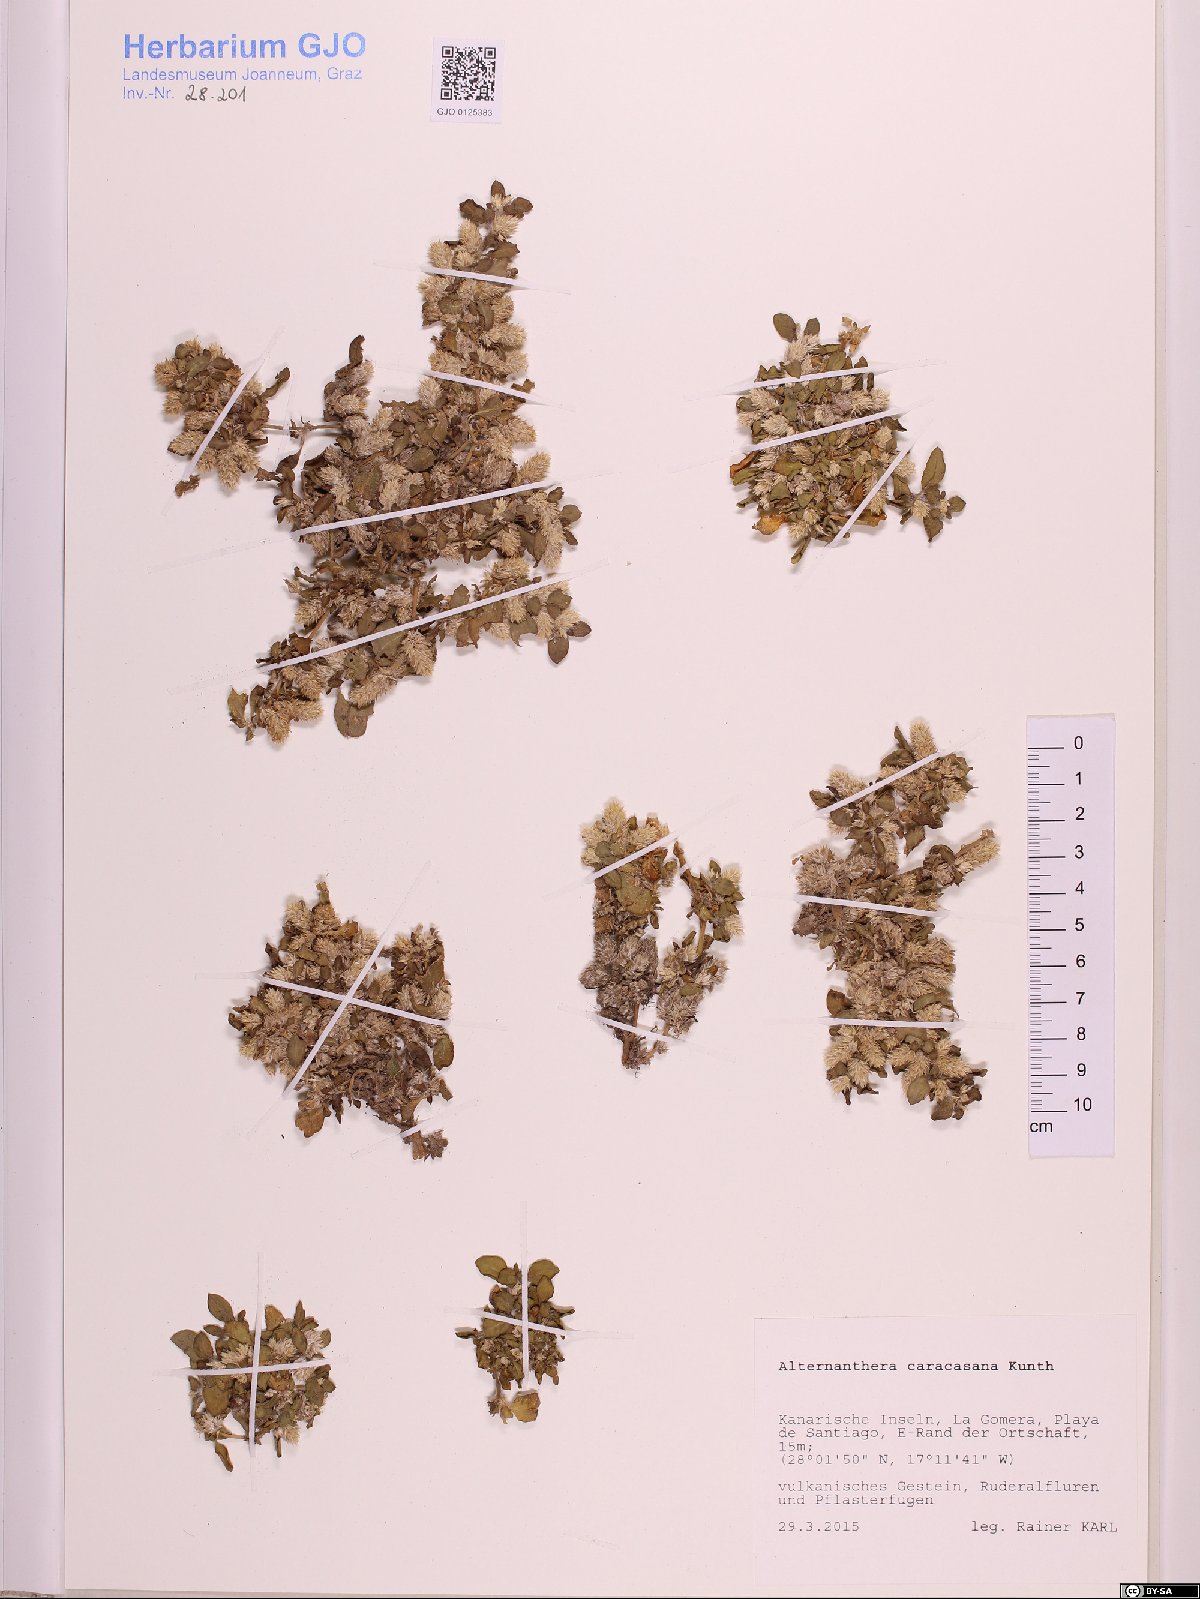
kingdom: Plantae
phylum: Tracheophyta
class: Magnoliopsida
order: Caryophyllales
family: Amaranthaceae
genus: Alternanthera
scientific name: Alternanthera caracasana
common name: Washerwoman
